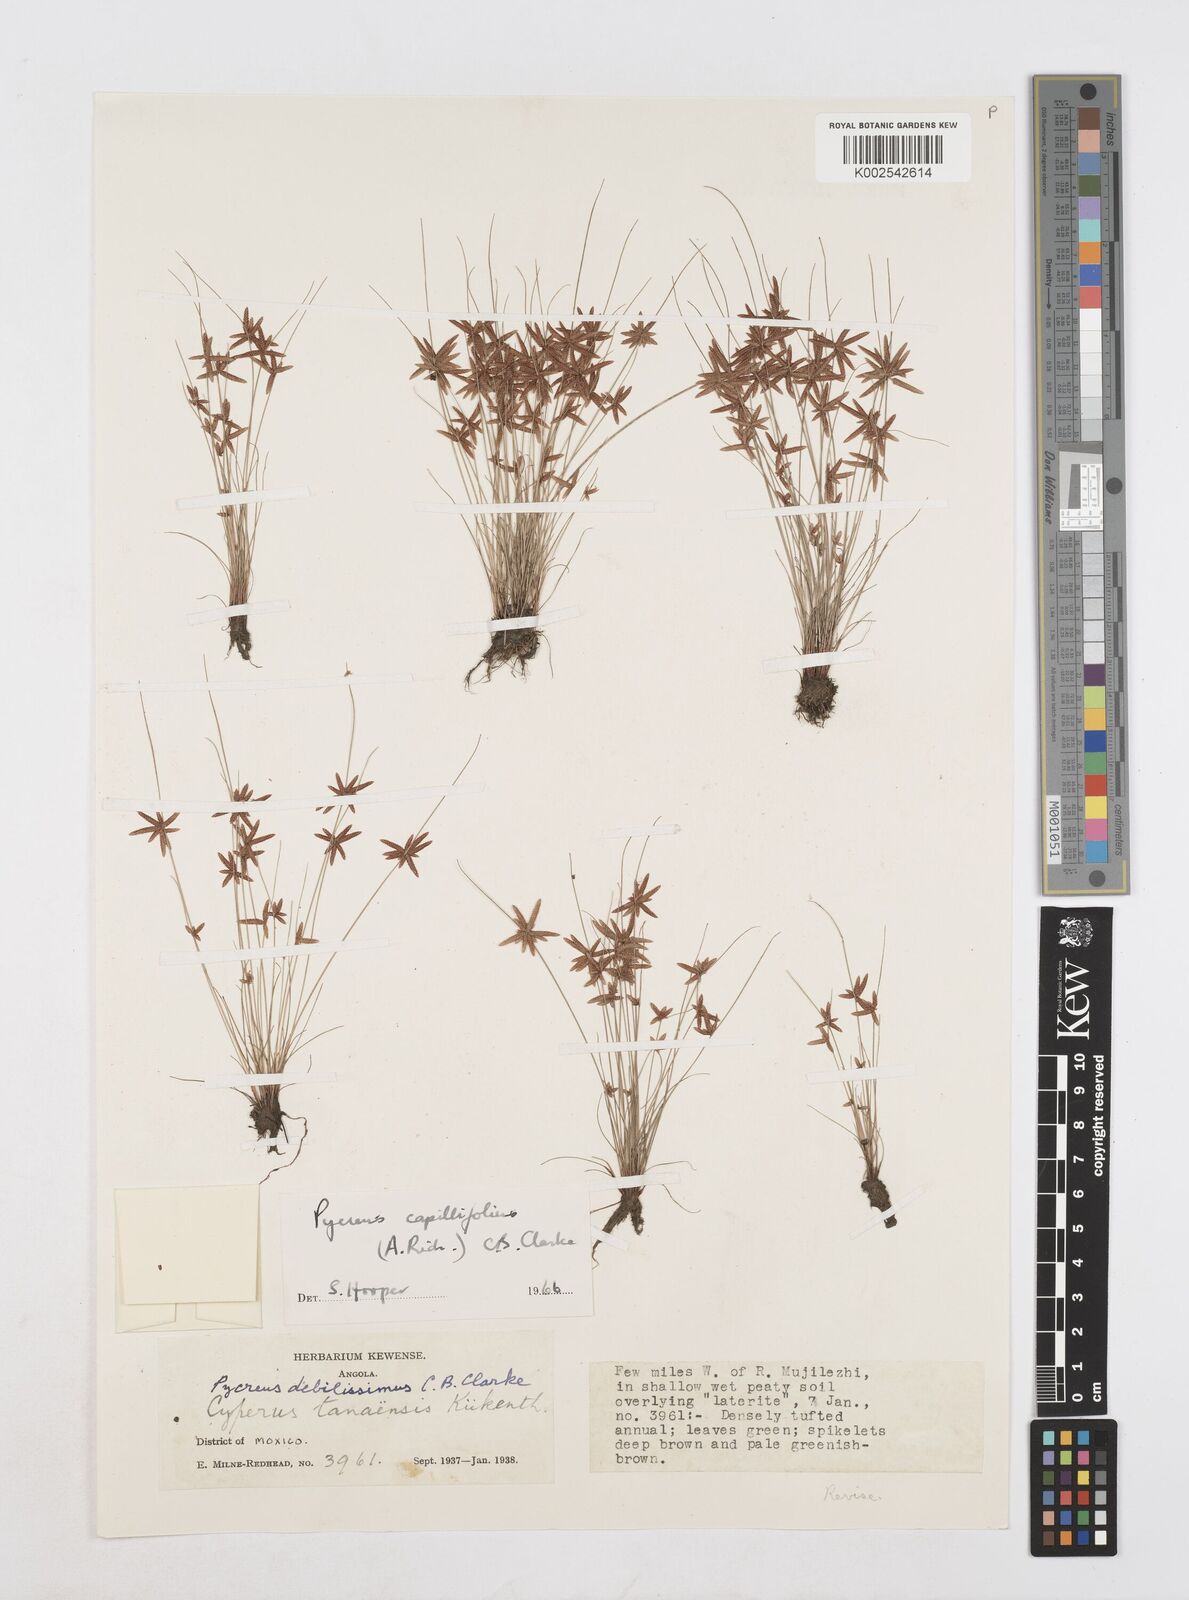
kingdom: Plantae
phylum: Tracheophyta
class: Liliopsida
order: Poales
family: Cyperaceae
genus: Cyperus
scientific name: Cyperus capillifolius
